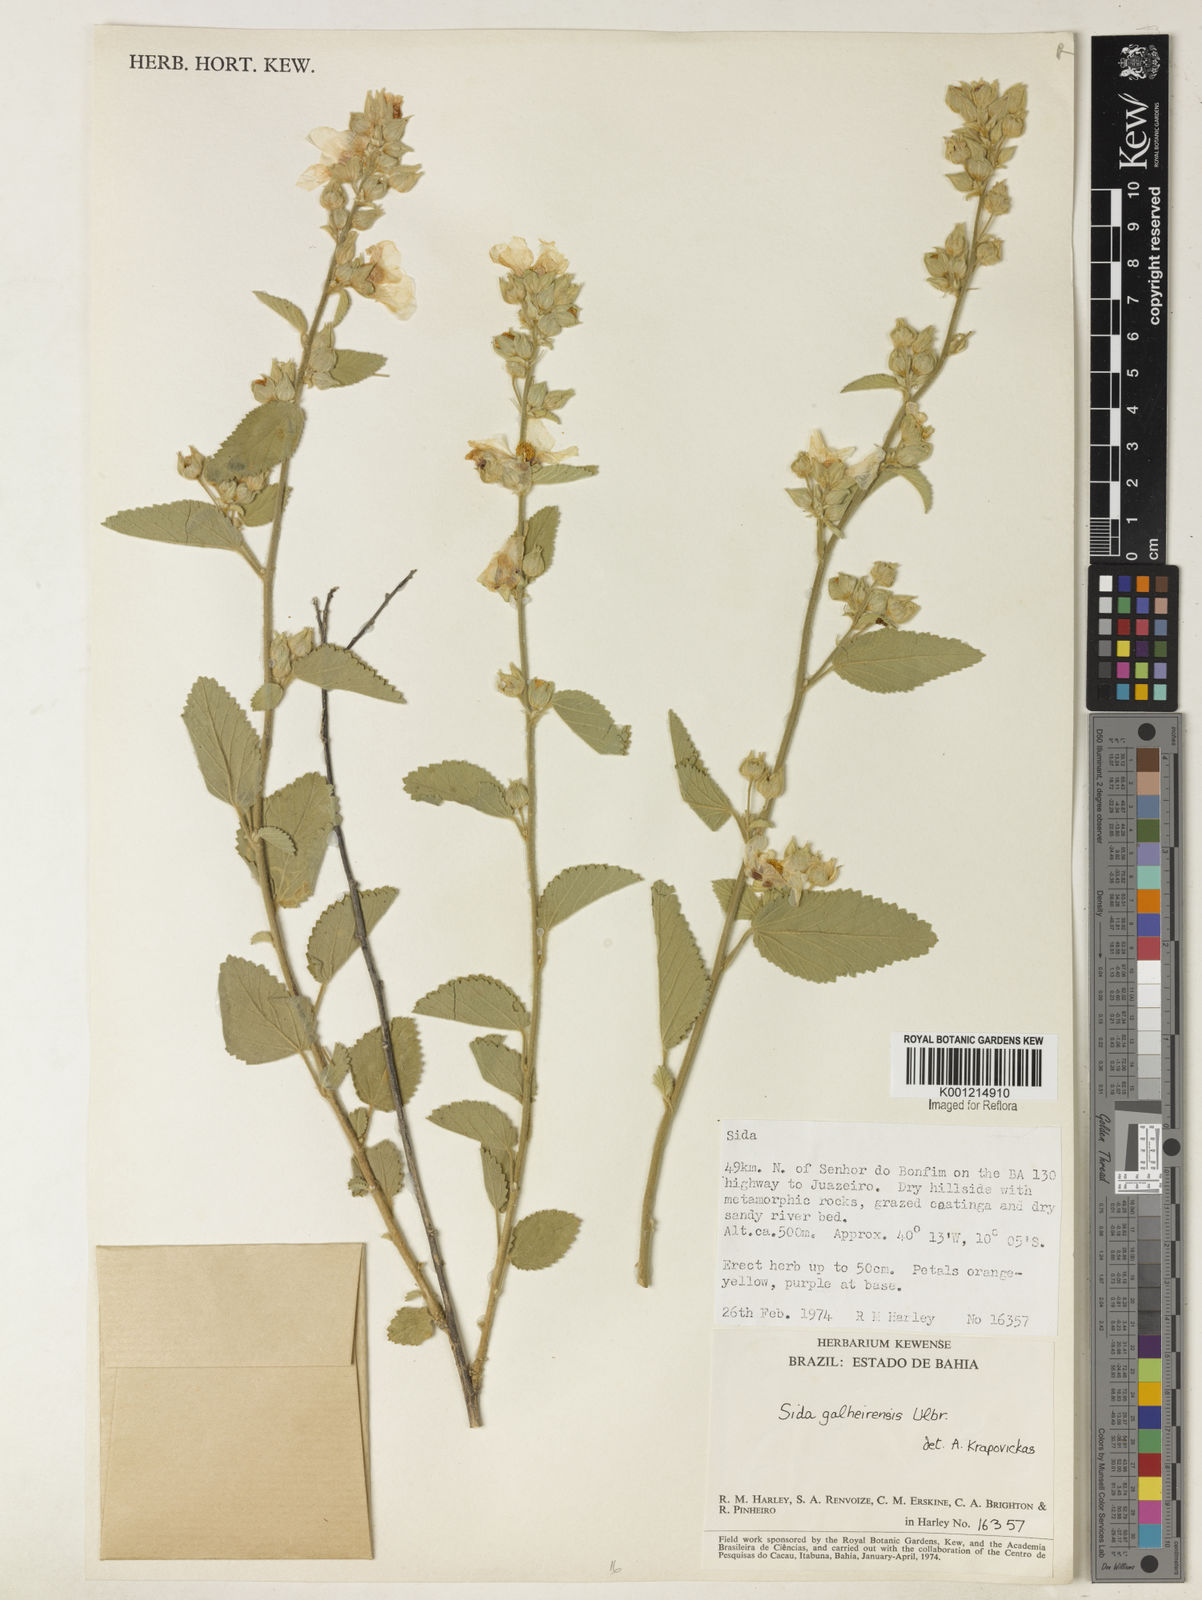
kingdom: Plantae
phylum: Tracheophyta
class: Magnoliopsida
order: Malvales
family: Malvaceae
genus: Sida
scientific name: Sida galheirensis
